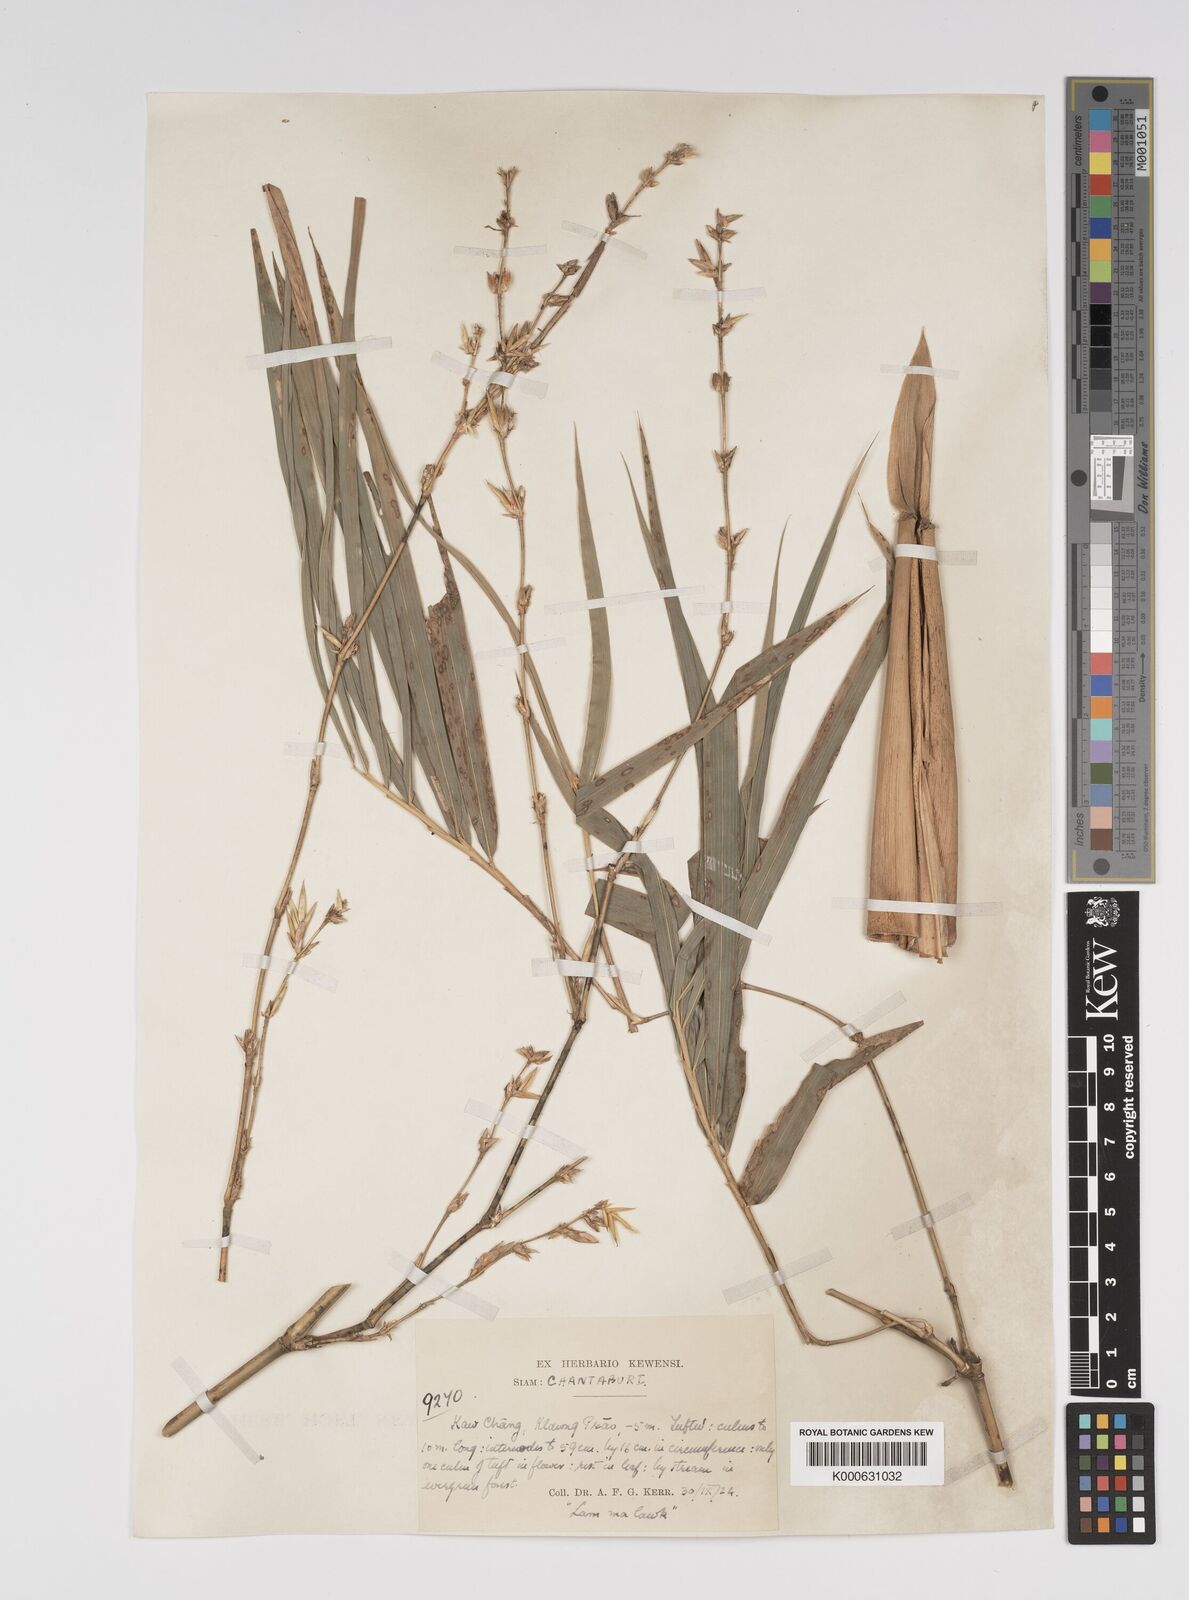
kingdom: Plantae
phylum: Tracheophyta
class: Liliopsida
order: Poales
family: Poaceae
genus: Bambusa
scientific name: Bambusa
